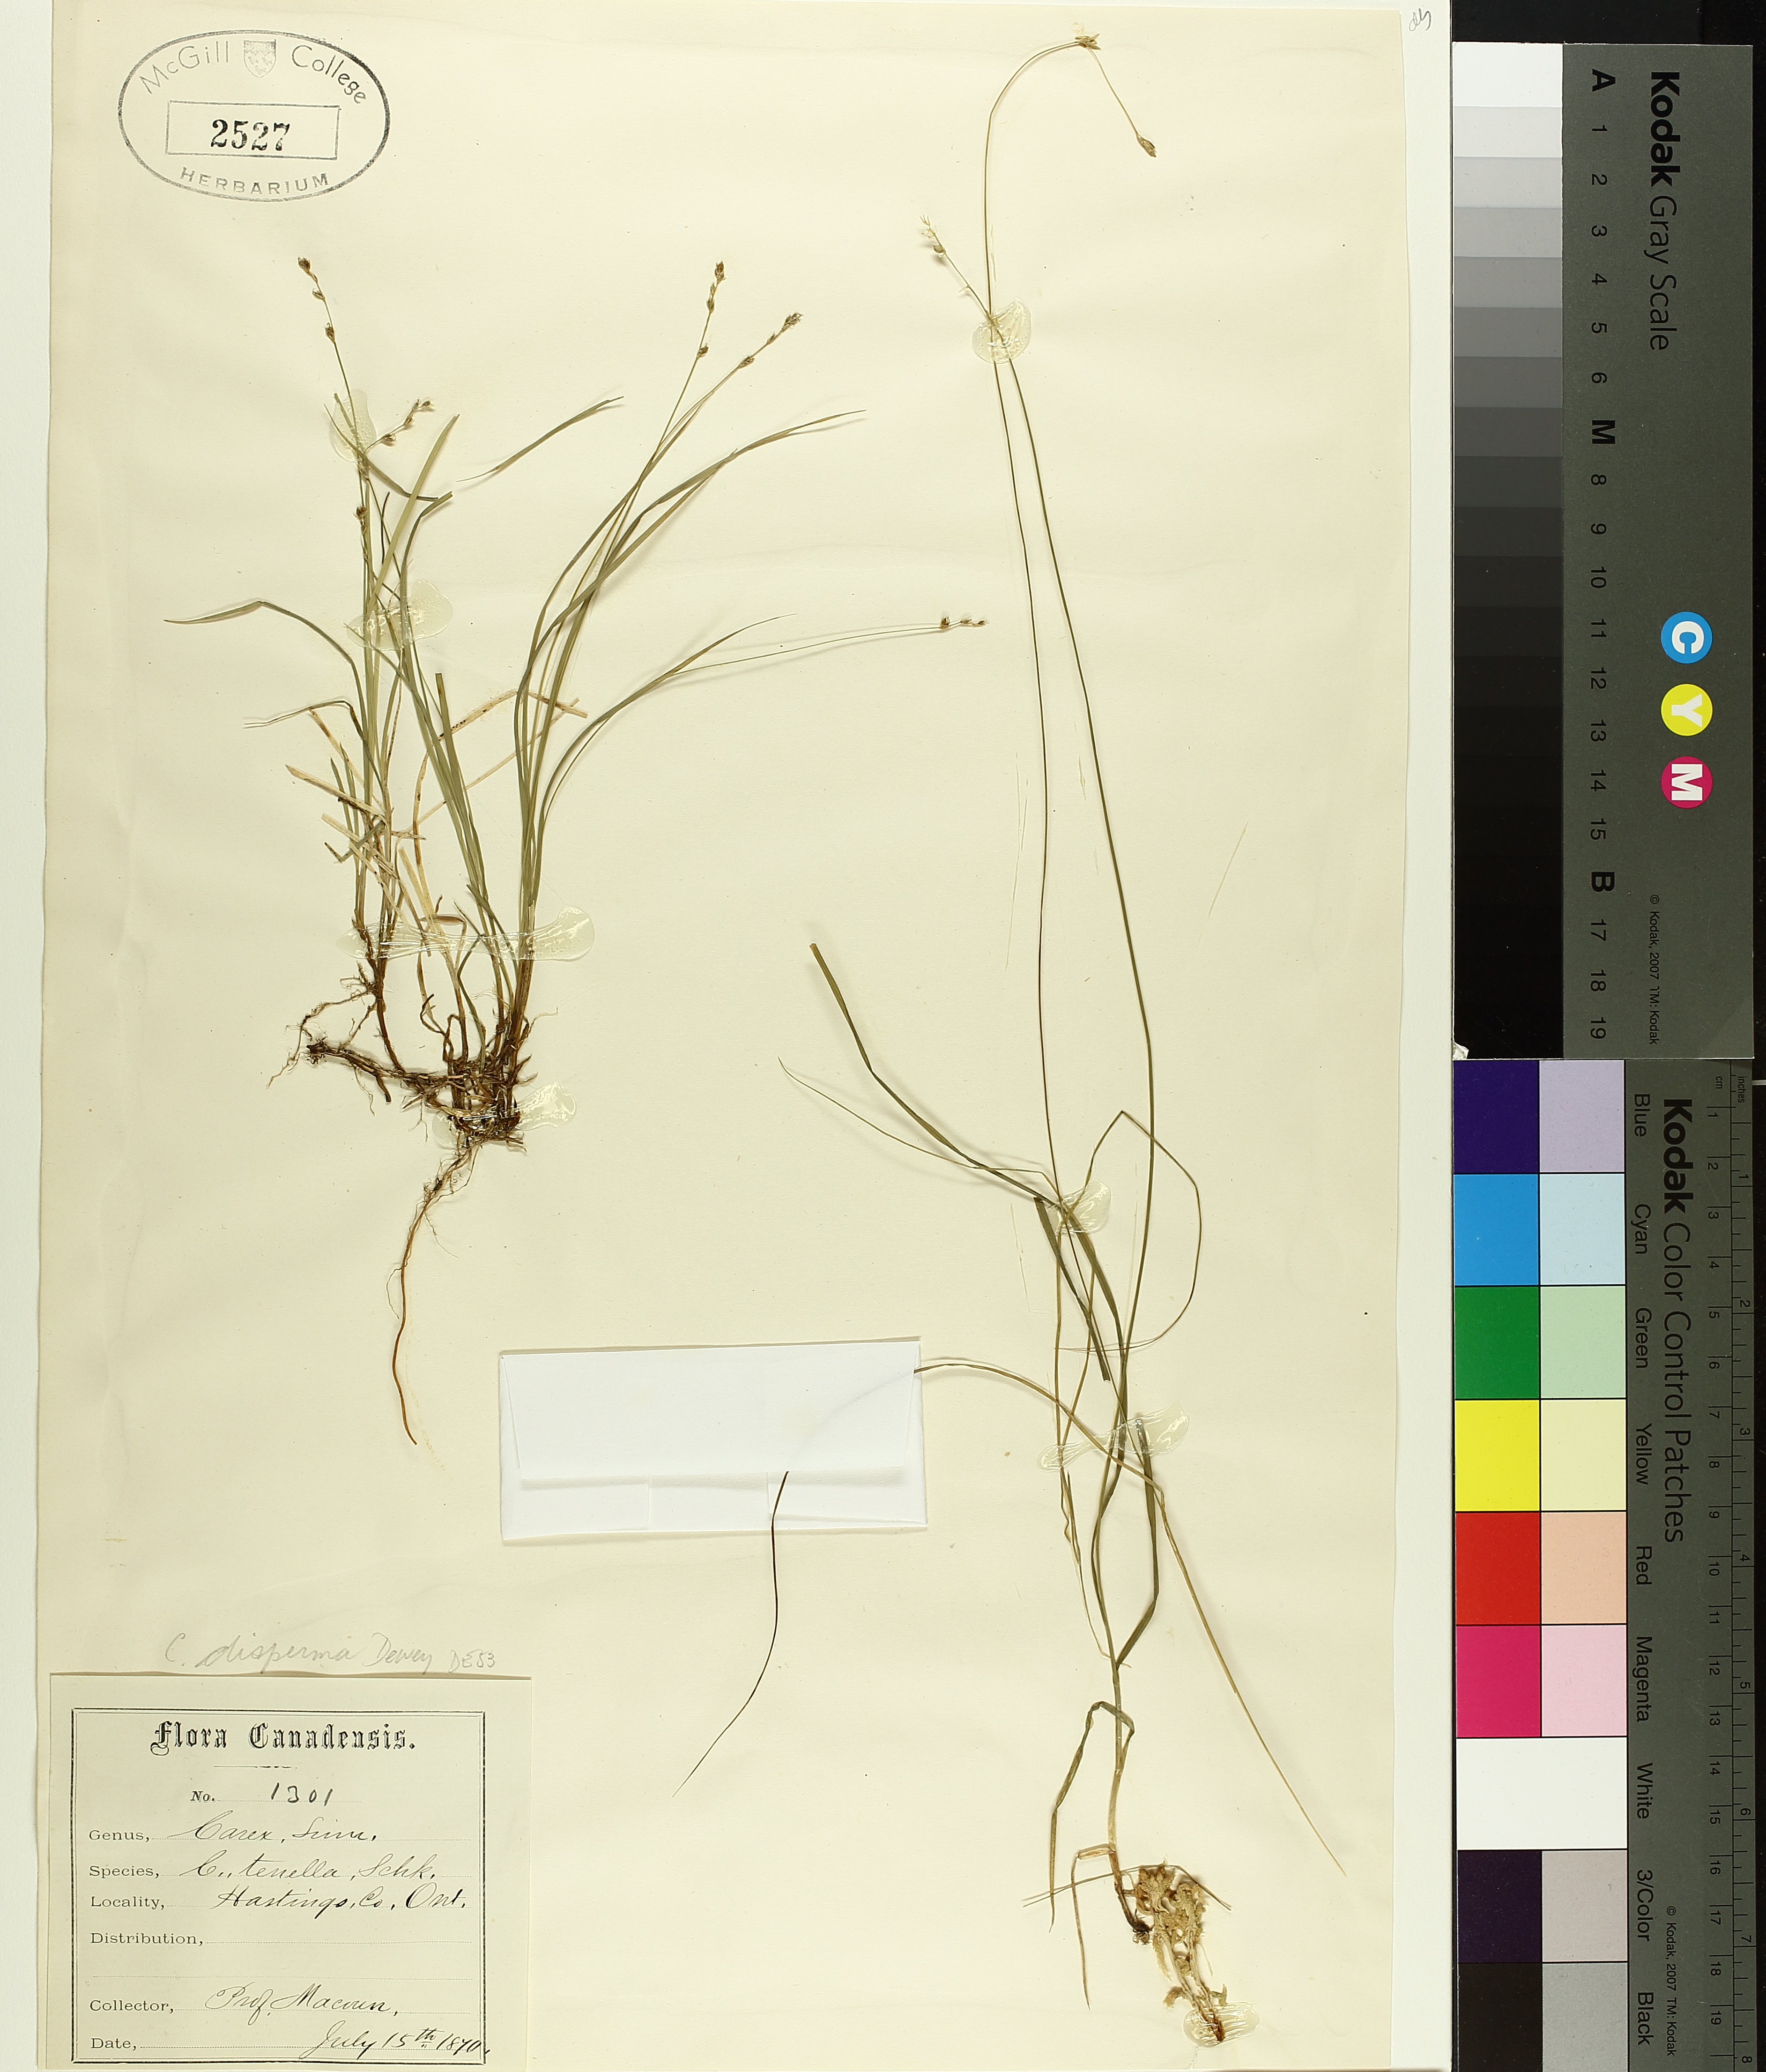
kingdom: Plantae
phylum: Tracheophyta
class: Liliopsida
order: Poales
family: Cyperaceae
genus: Carex
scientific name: Carex disperma
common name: Short-leaved sedge
